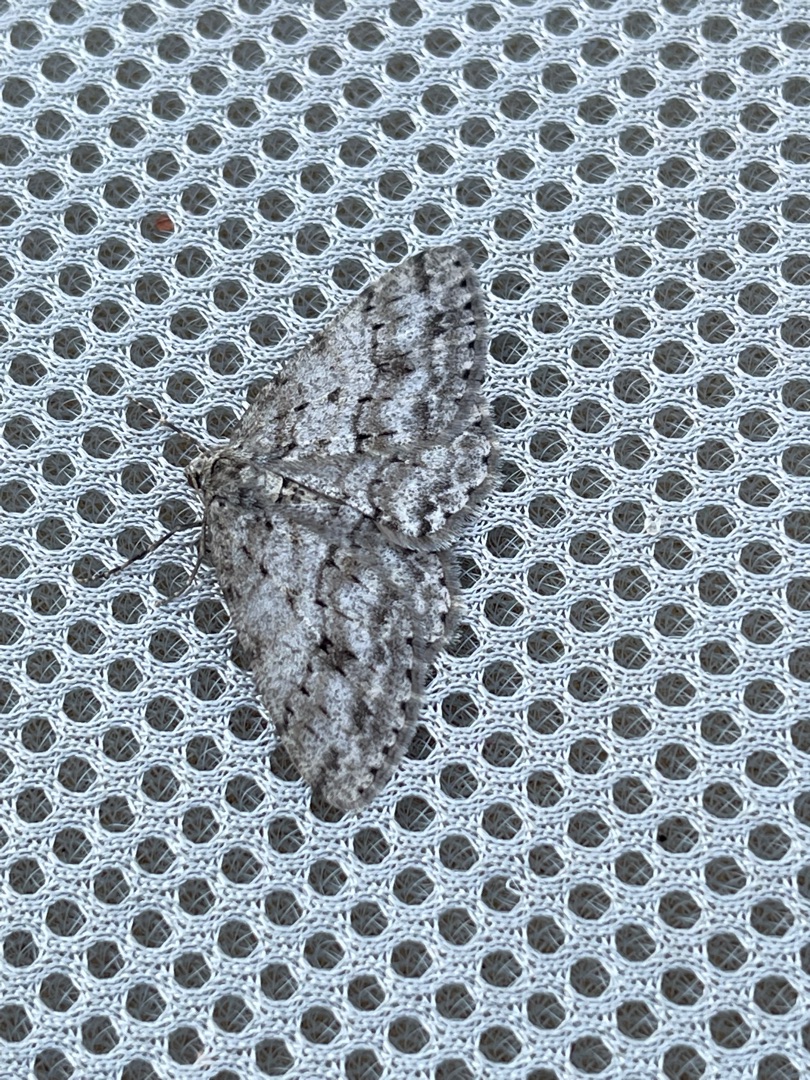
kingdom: Animalia
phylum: Arthropoda
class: Insecta
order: Lepidoptera
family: Geometridae
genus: Ectropis
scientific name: Ectropis crepuscularia
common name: Birke-barkmåler
